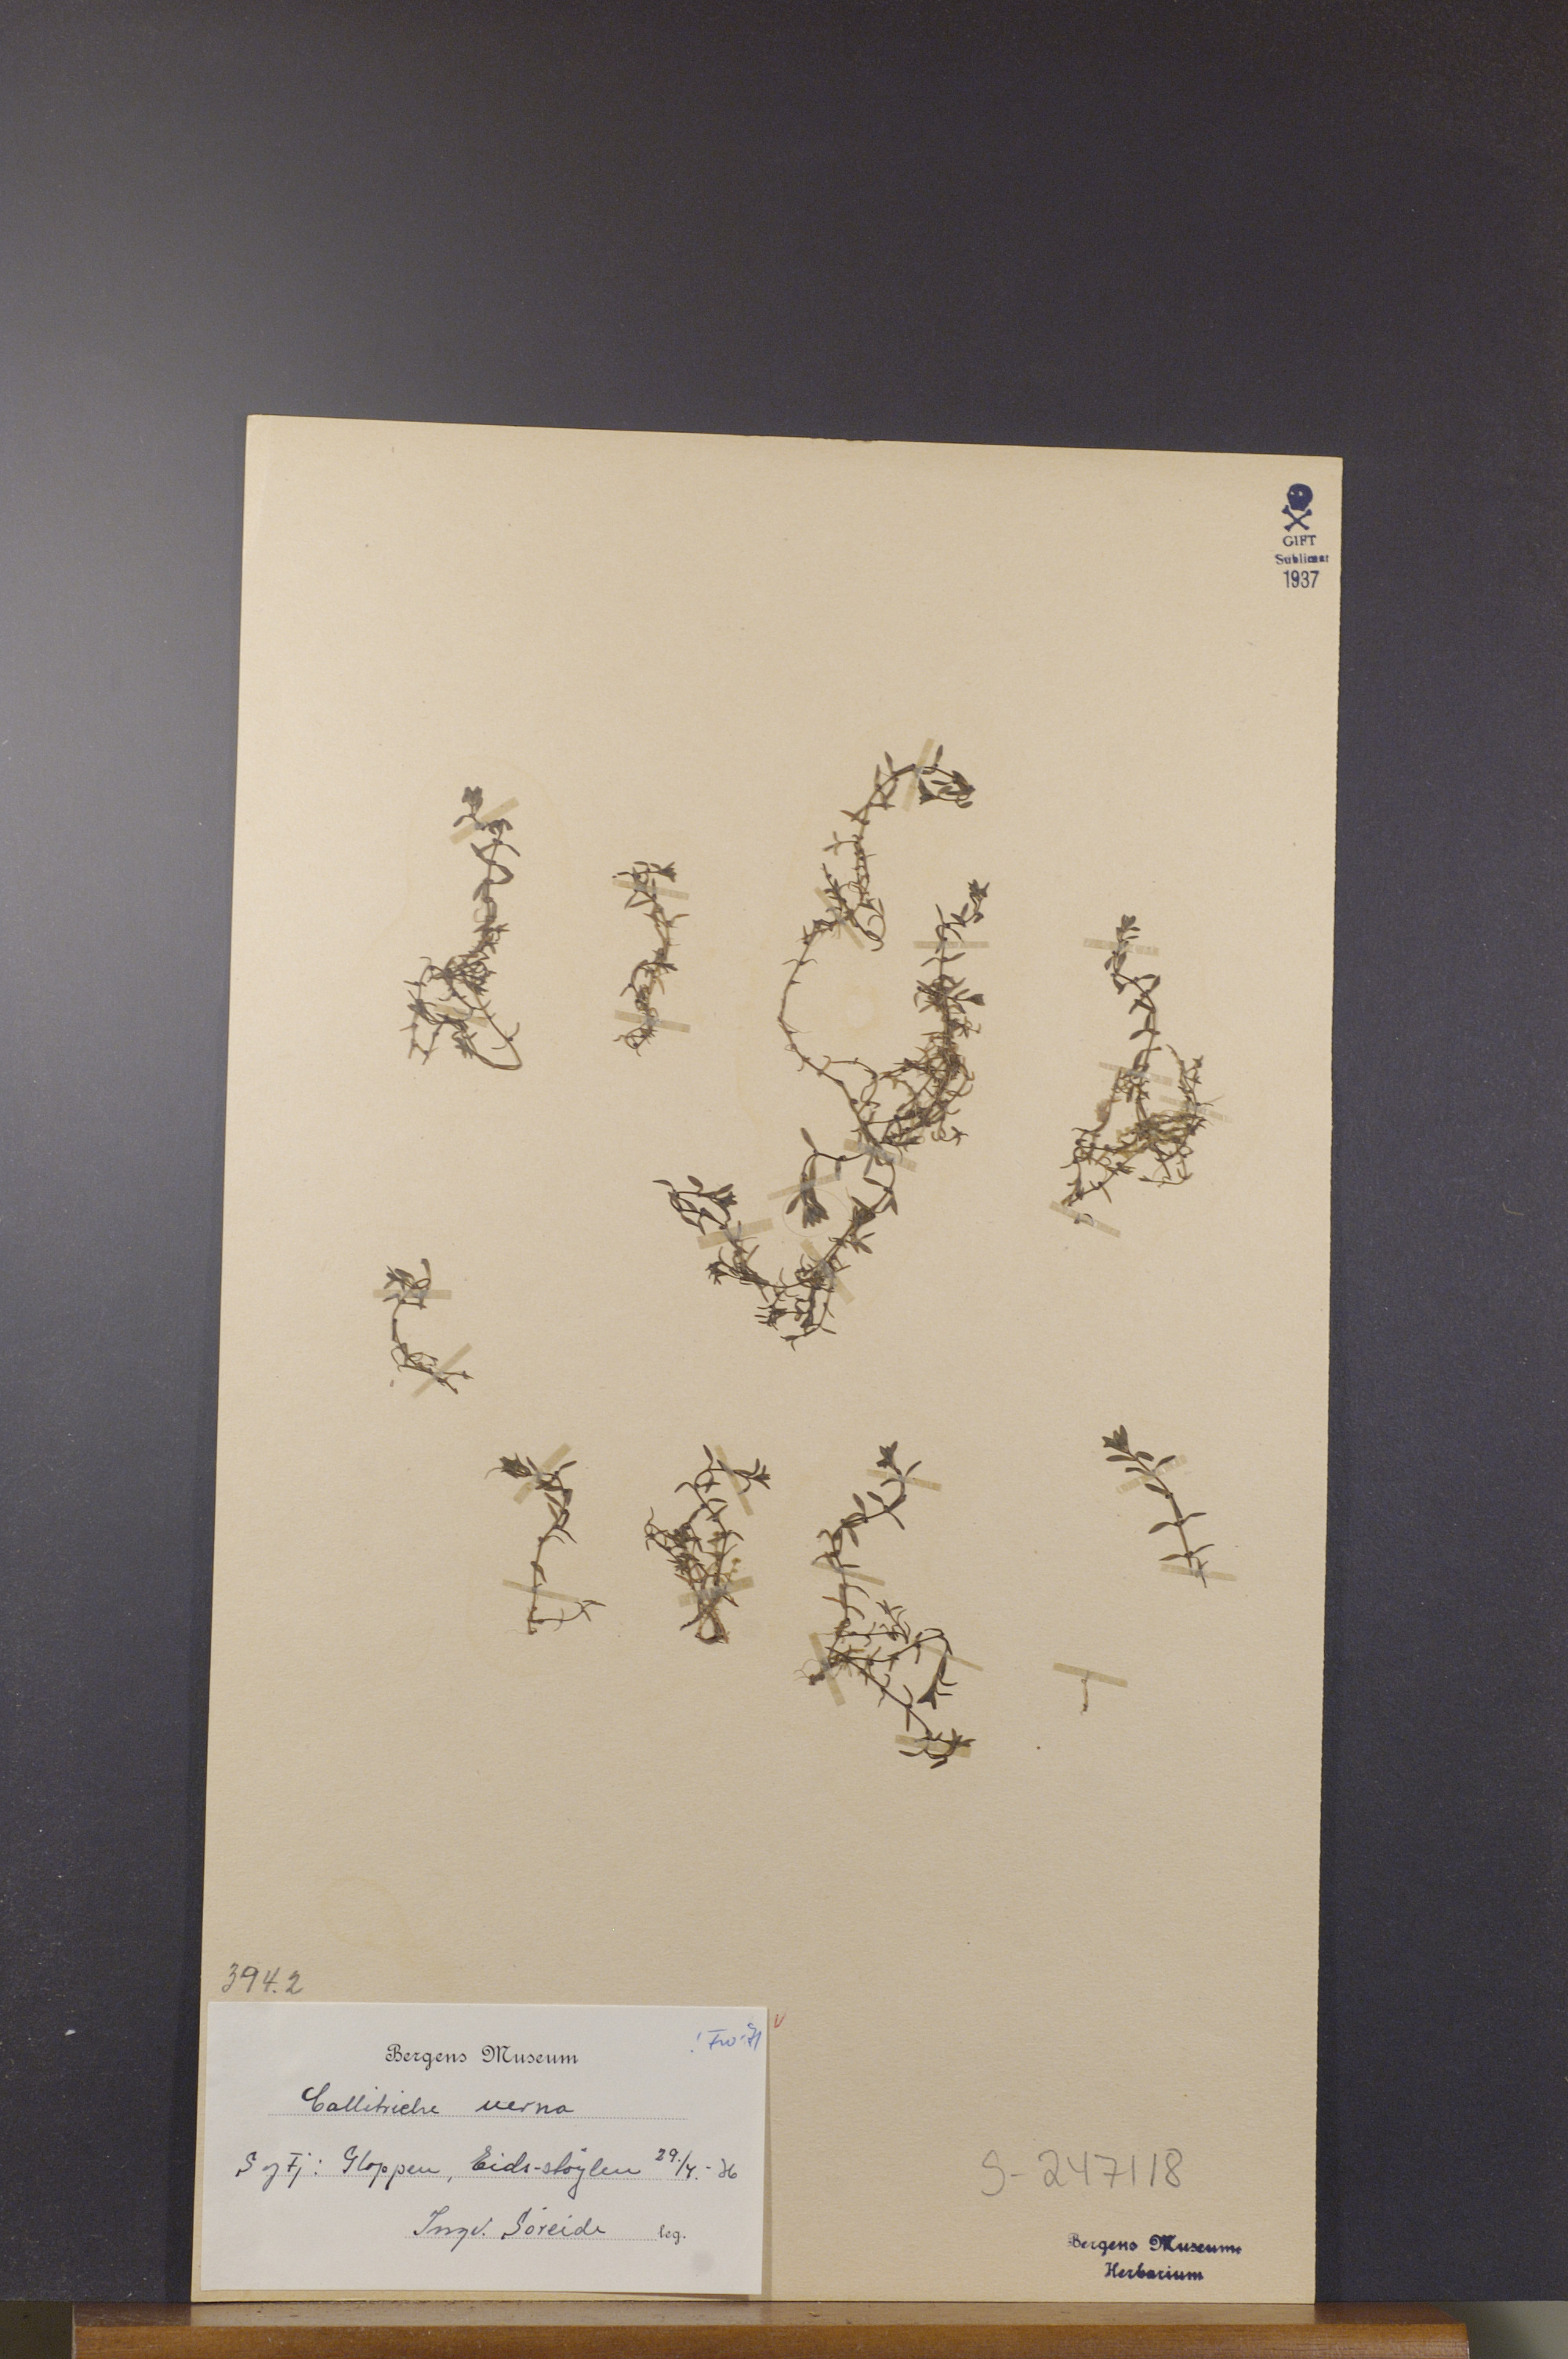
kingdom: Plantae
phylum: Tracheophyta
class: Magnoliopsida
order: Lamiales
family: Plantaginaceae
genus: Callitriche
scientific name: Callitriche palustris
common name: Spring water-starwort
